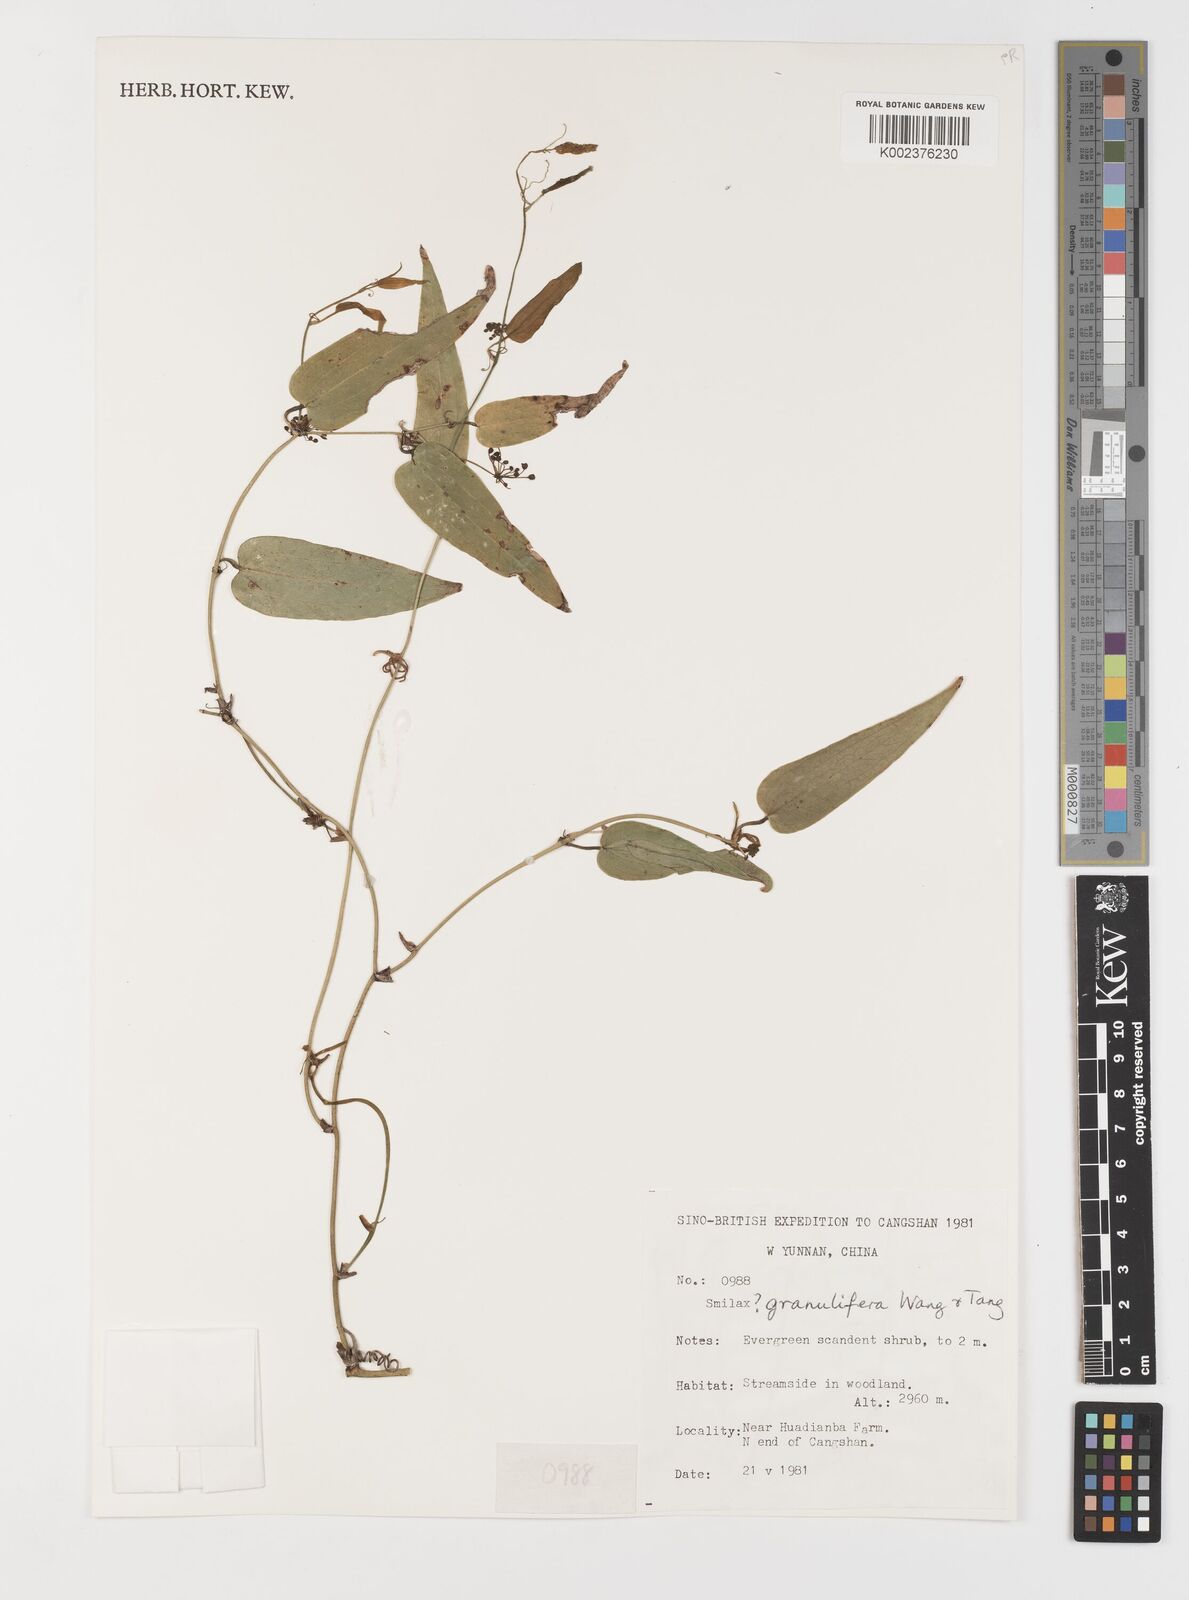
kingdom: Plantae
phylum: Tracheophyta
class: Liliopsida
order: Liliales
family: Smilacaceae
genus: Smilax
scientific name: Smilax
